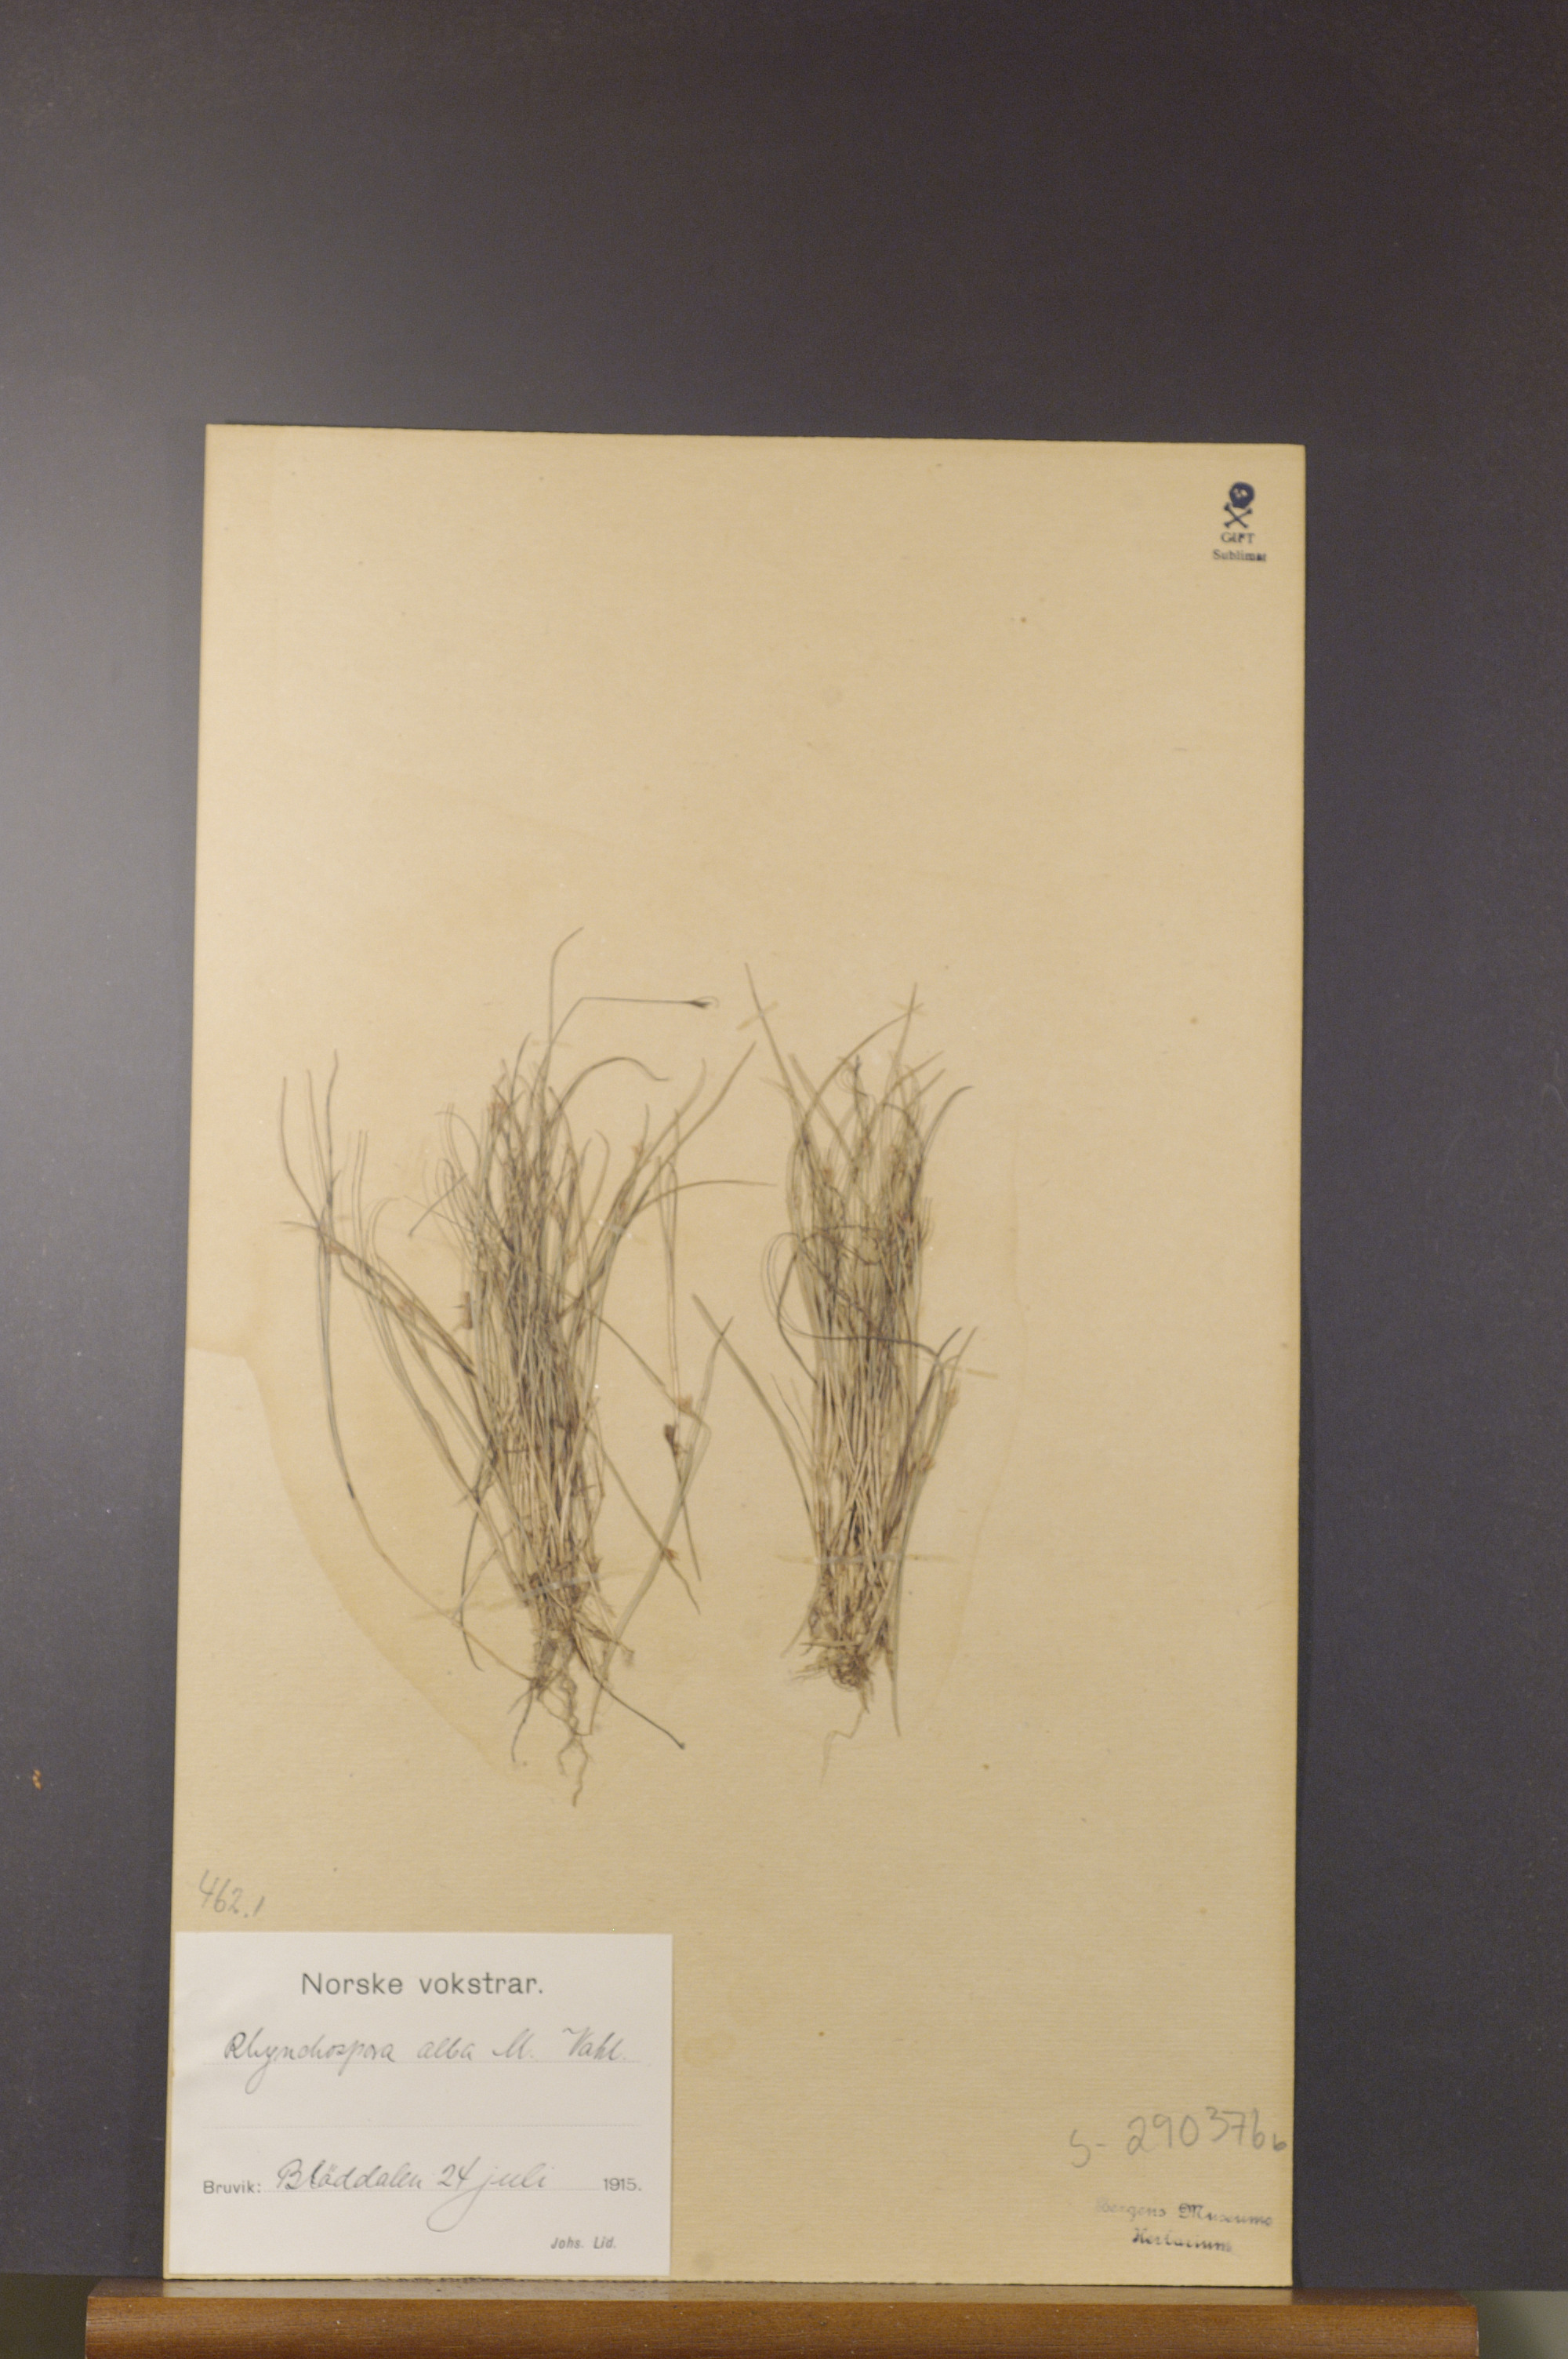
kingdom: Plantae
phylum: Tracheophyta
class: Liliopsida
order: Poales
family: Cyperaceae
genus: Rhynchospora
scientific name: Rhynchospora alba
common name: White beak-sedge
